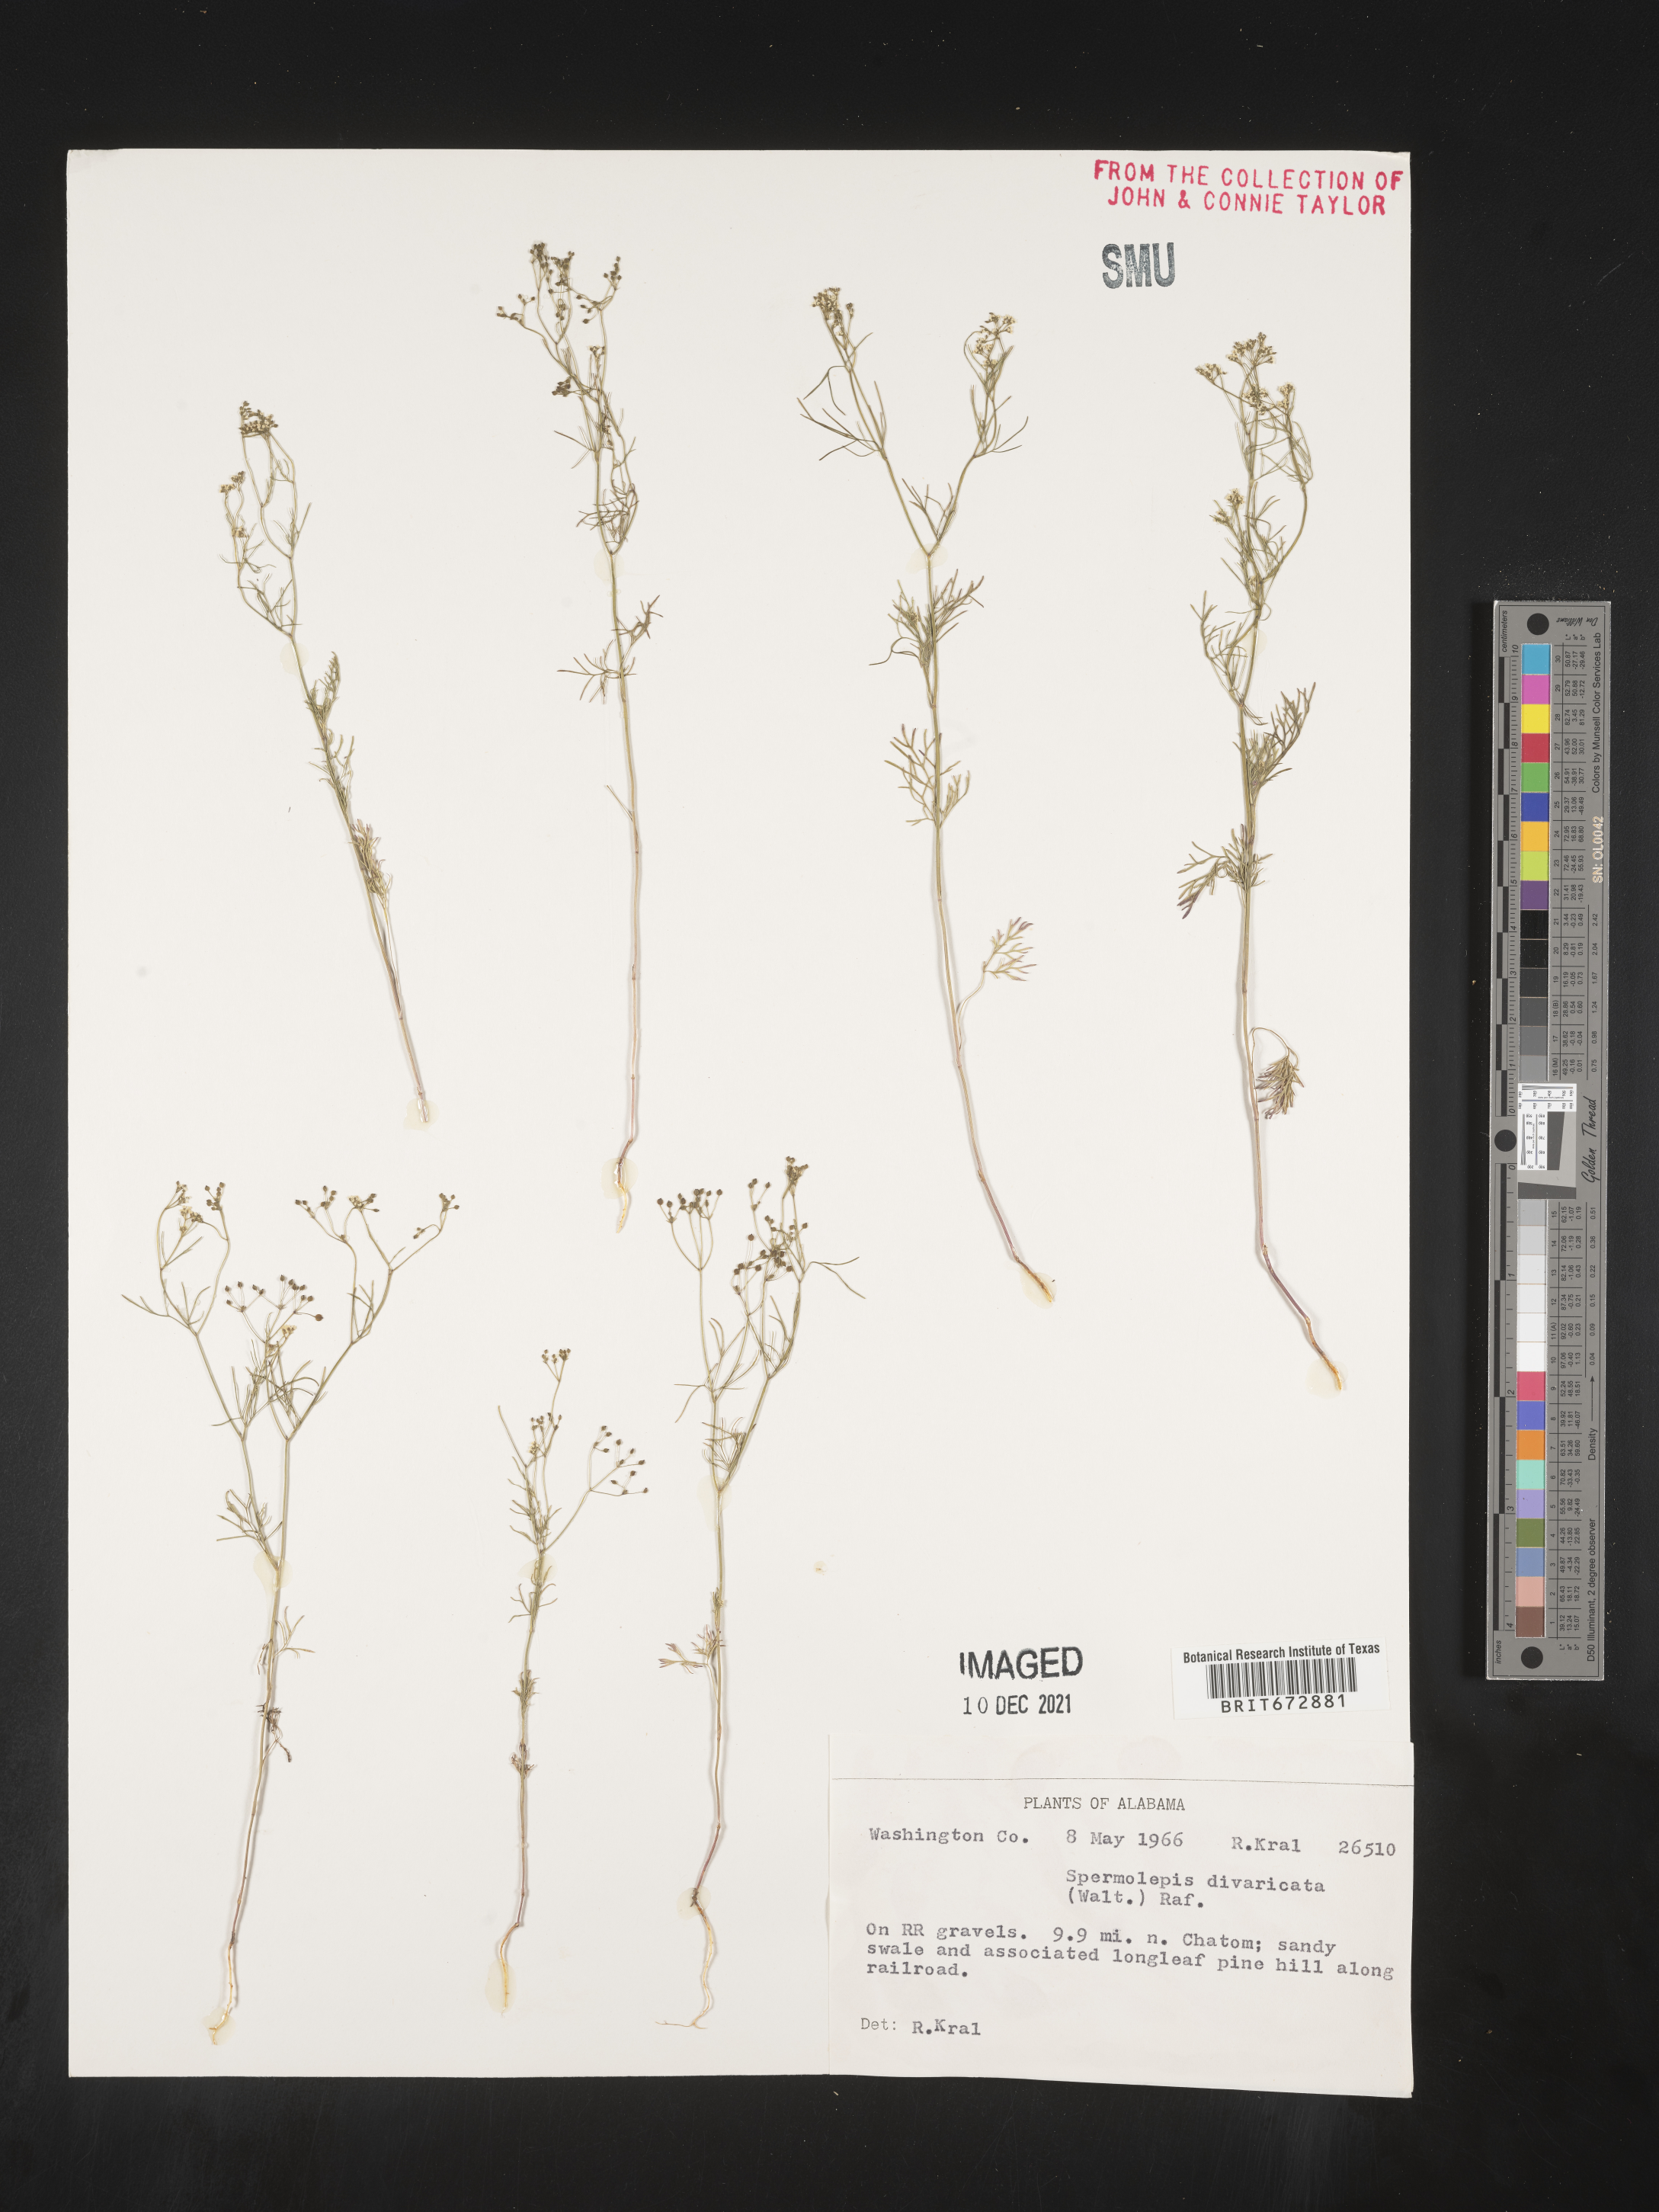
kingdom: Plantae
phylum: Tracheophyta
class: Magnoliopsida
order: Apiales
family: Apiaceae
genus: Spermolepis
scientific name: Spermolepis divaricata
